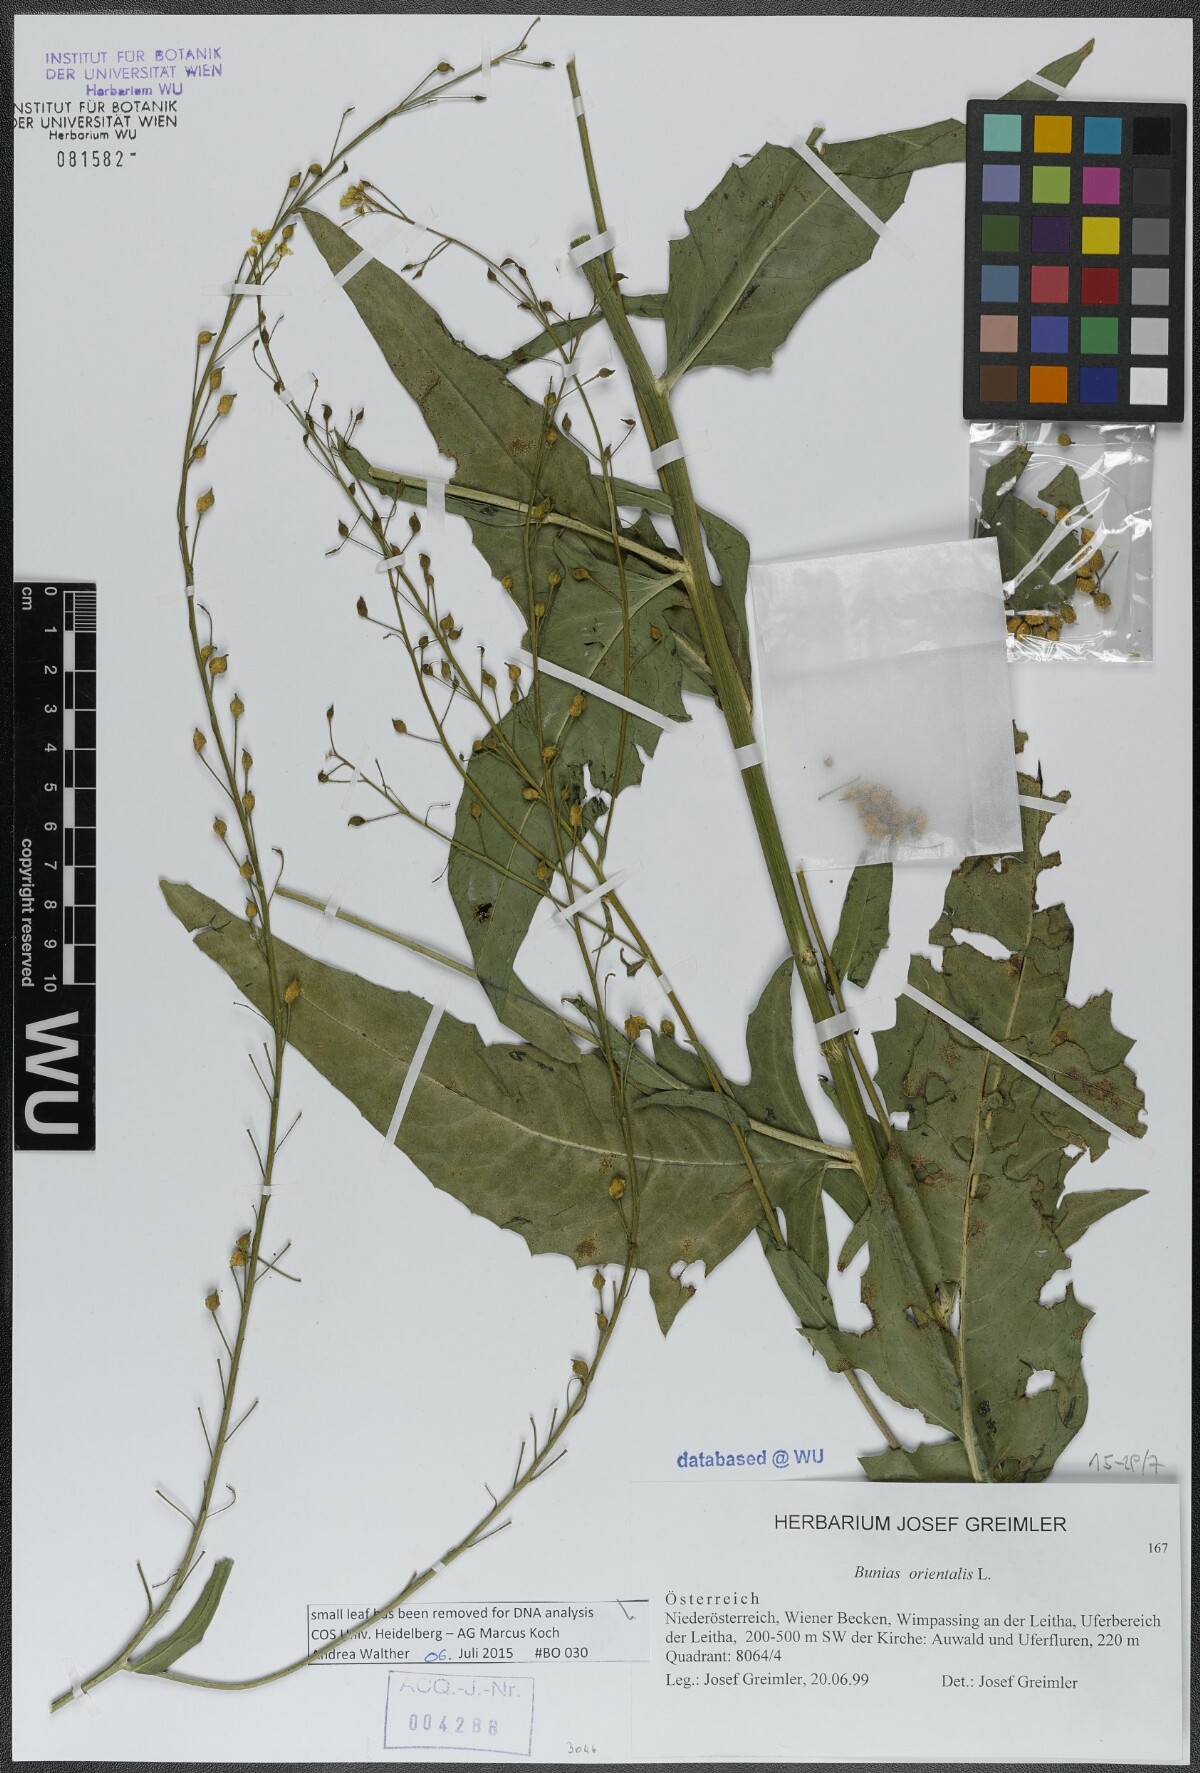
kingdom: Plantae
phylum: Tracheophyta
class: Magnoliopsida
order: Brassicales
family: Brassicaceae
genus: Bunias
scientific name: Bunias orientalis
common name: Warty-cabbage
